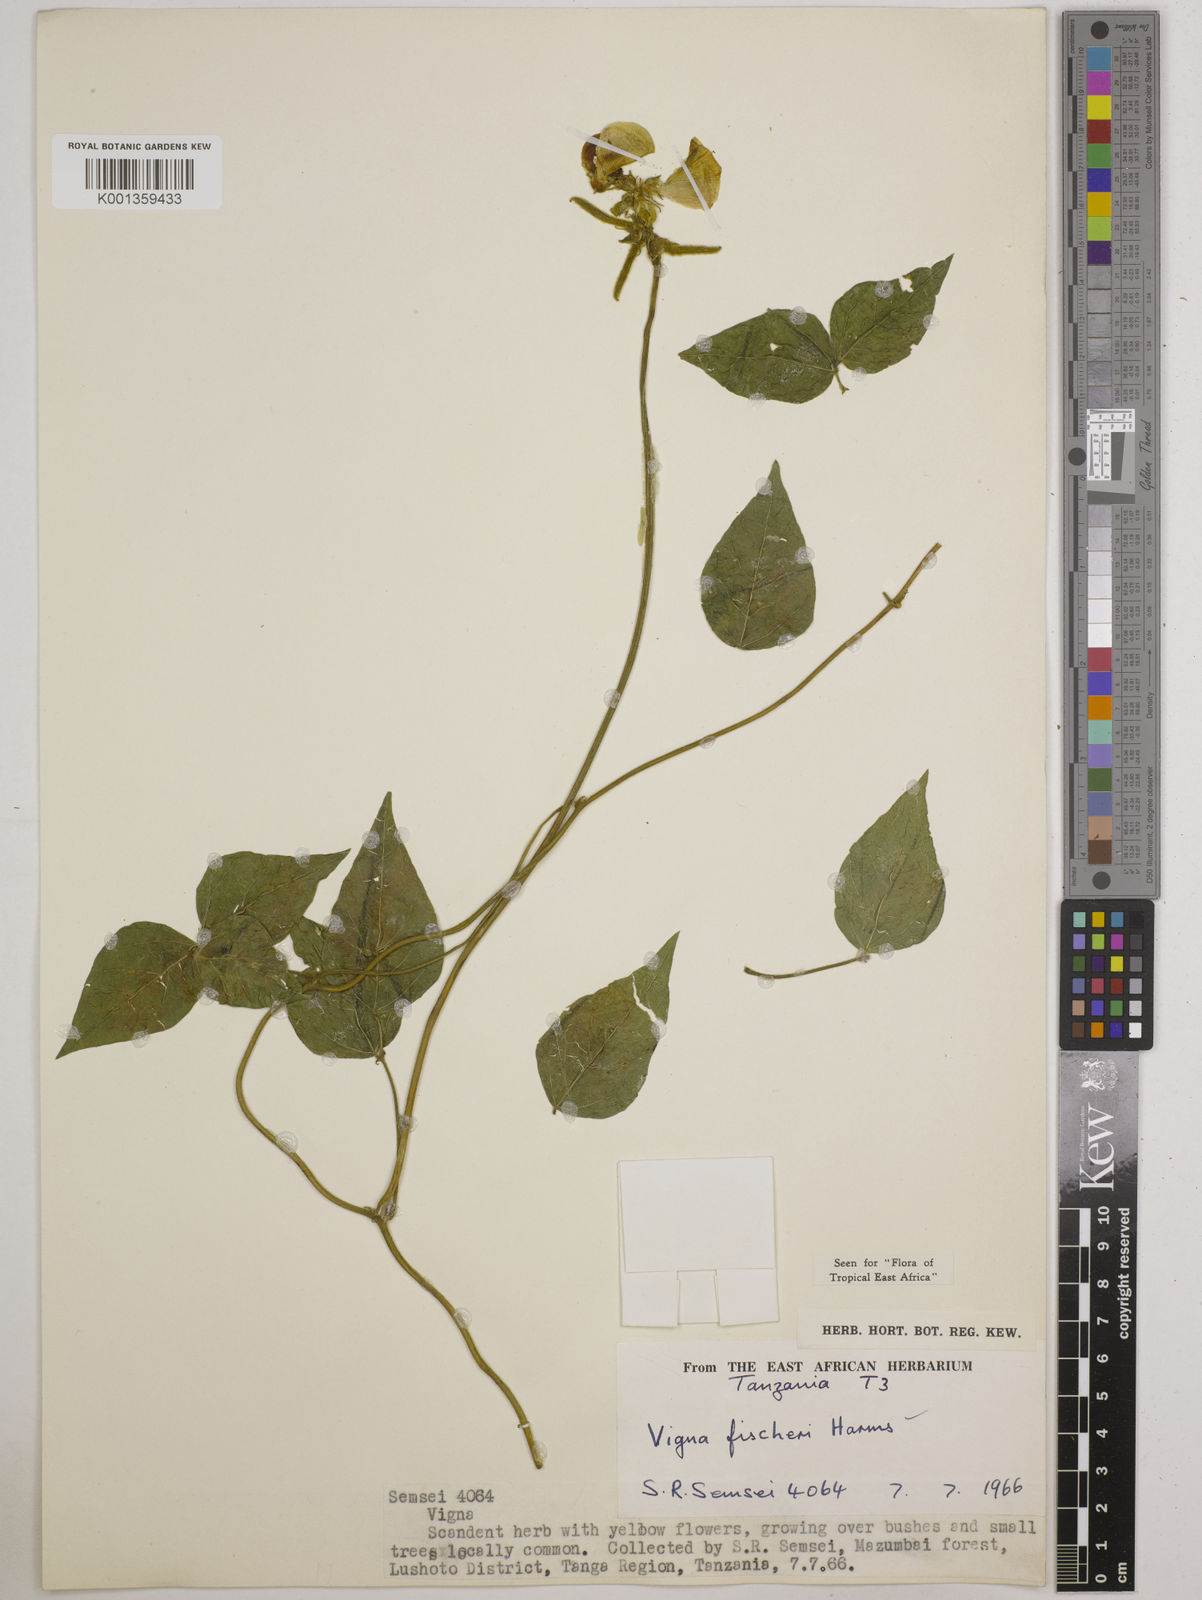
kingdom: Plantae
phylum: Tracheophyta
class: Magnoliopsida
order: Fabales
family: Fabaceae
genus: Vigna
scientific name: Vigna fischeri
